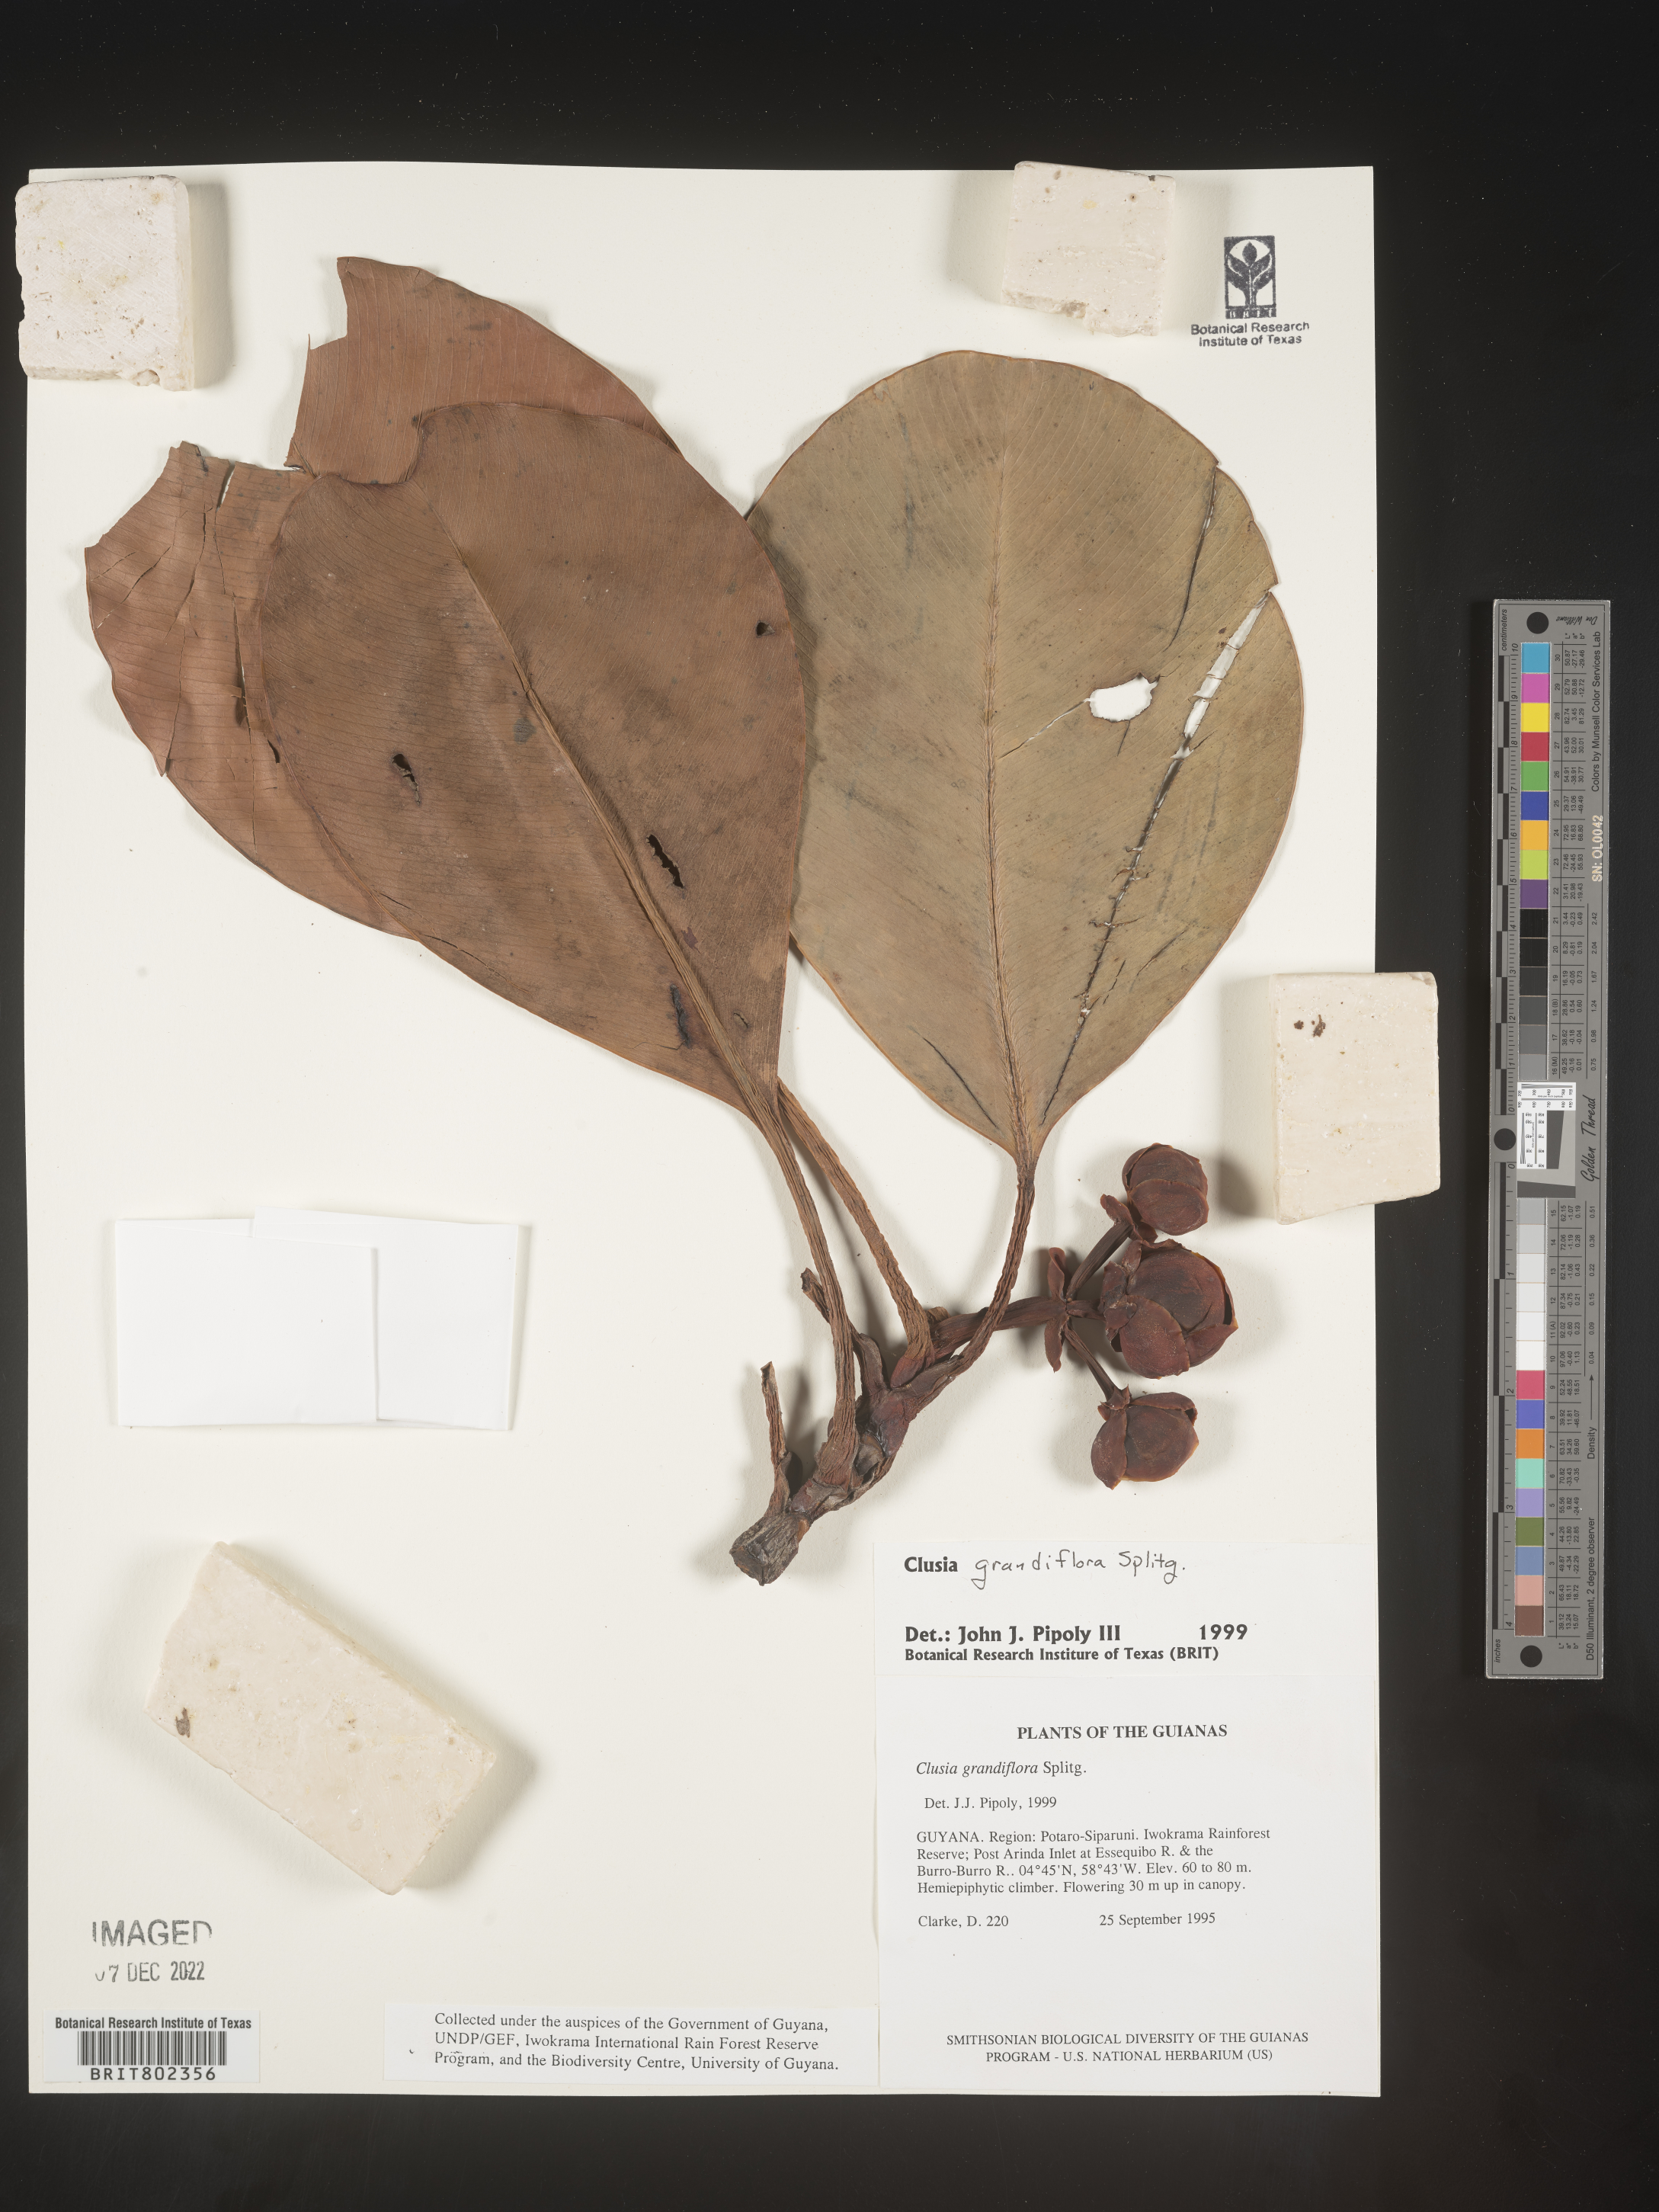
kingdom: Plantae
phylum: Tracheophyta
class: Magnoliopsida
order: Malpighiales
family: Clusiaceae
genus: Clusia
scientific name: Clusia grandiflora
